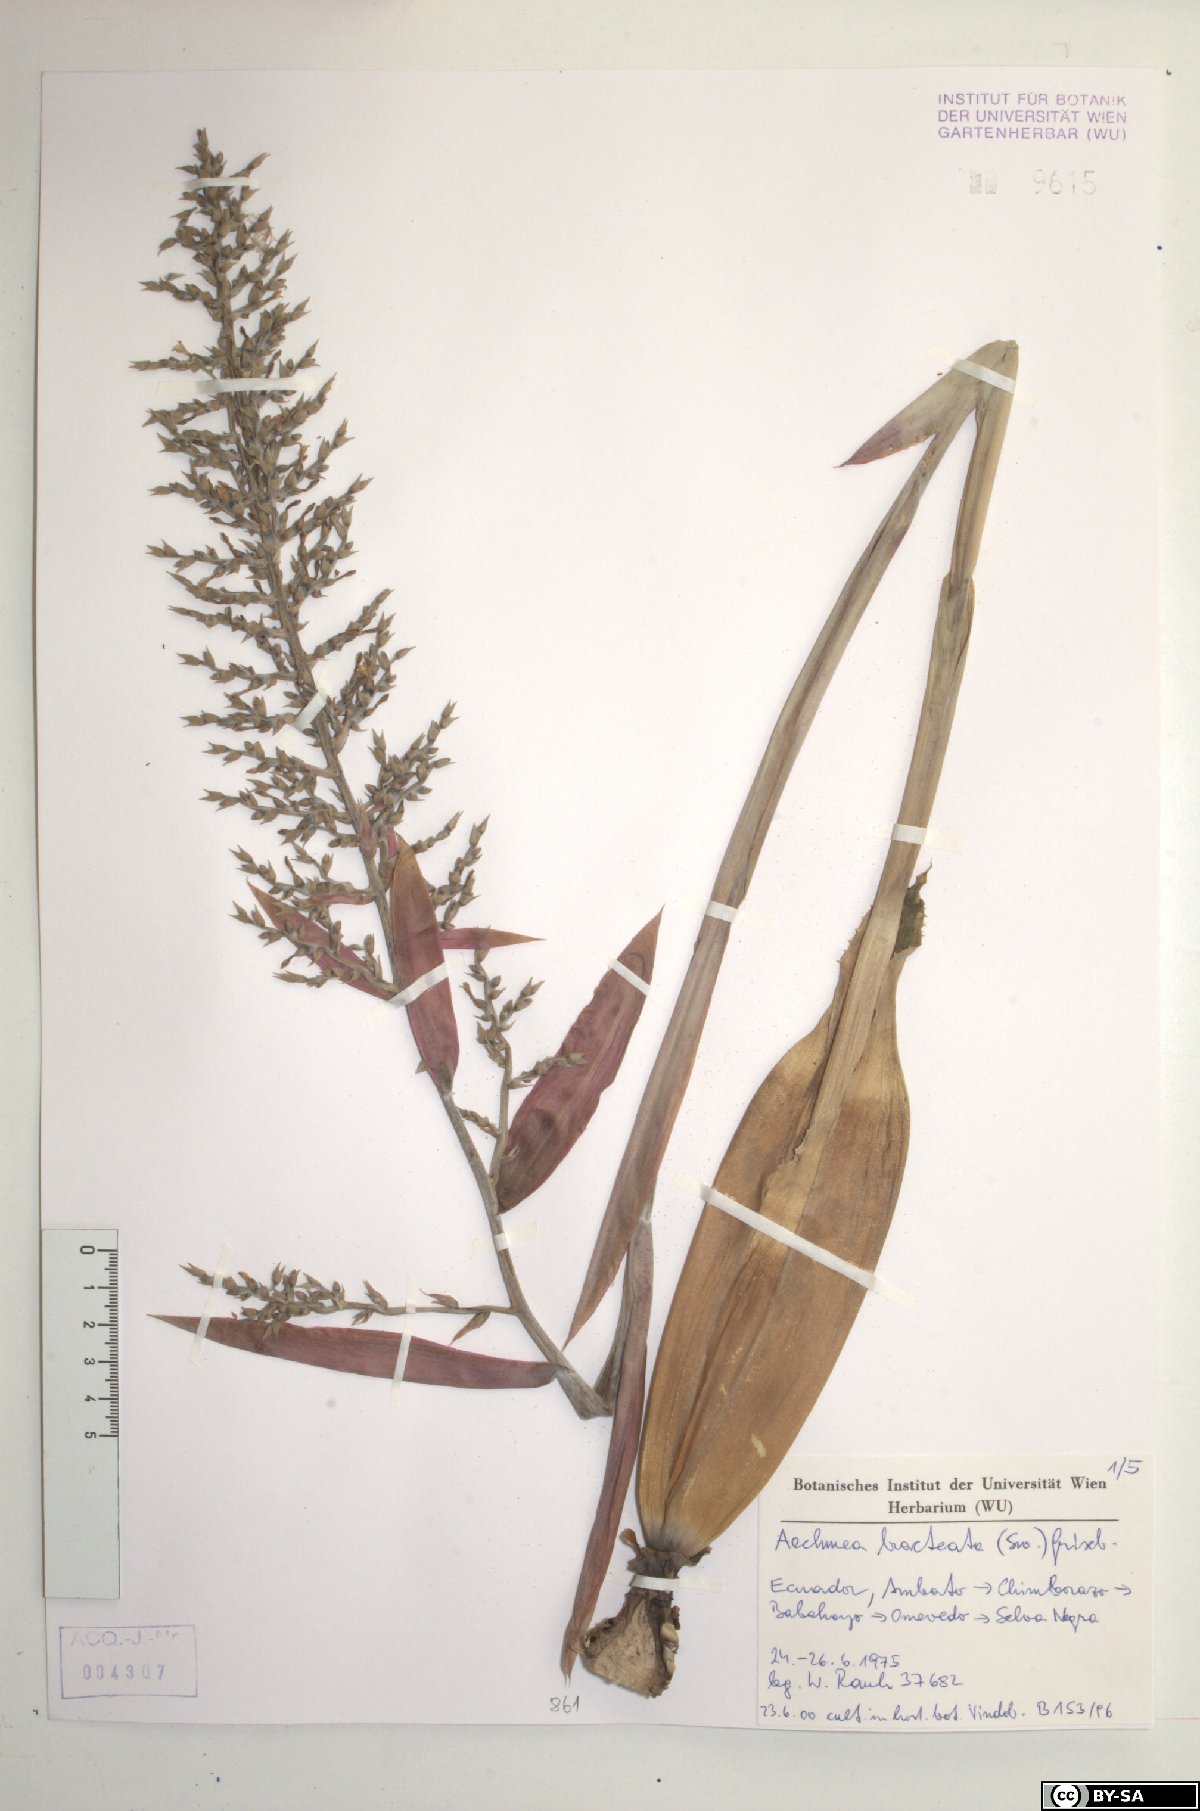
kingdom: Plantae
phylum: Tracheophyta
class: Liliopsida
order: Poales
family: Bromeliaceae
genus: Aechmea
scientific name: Aechmea bracteata
